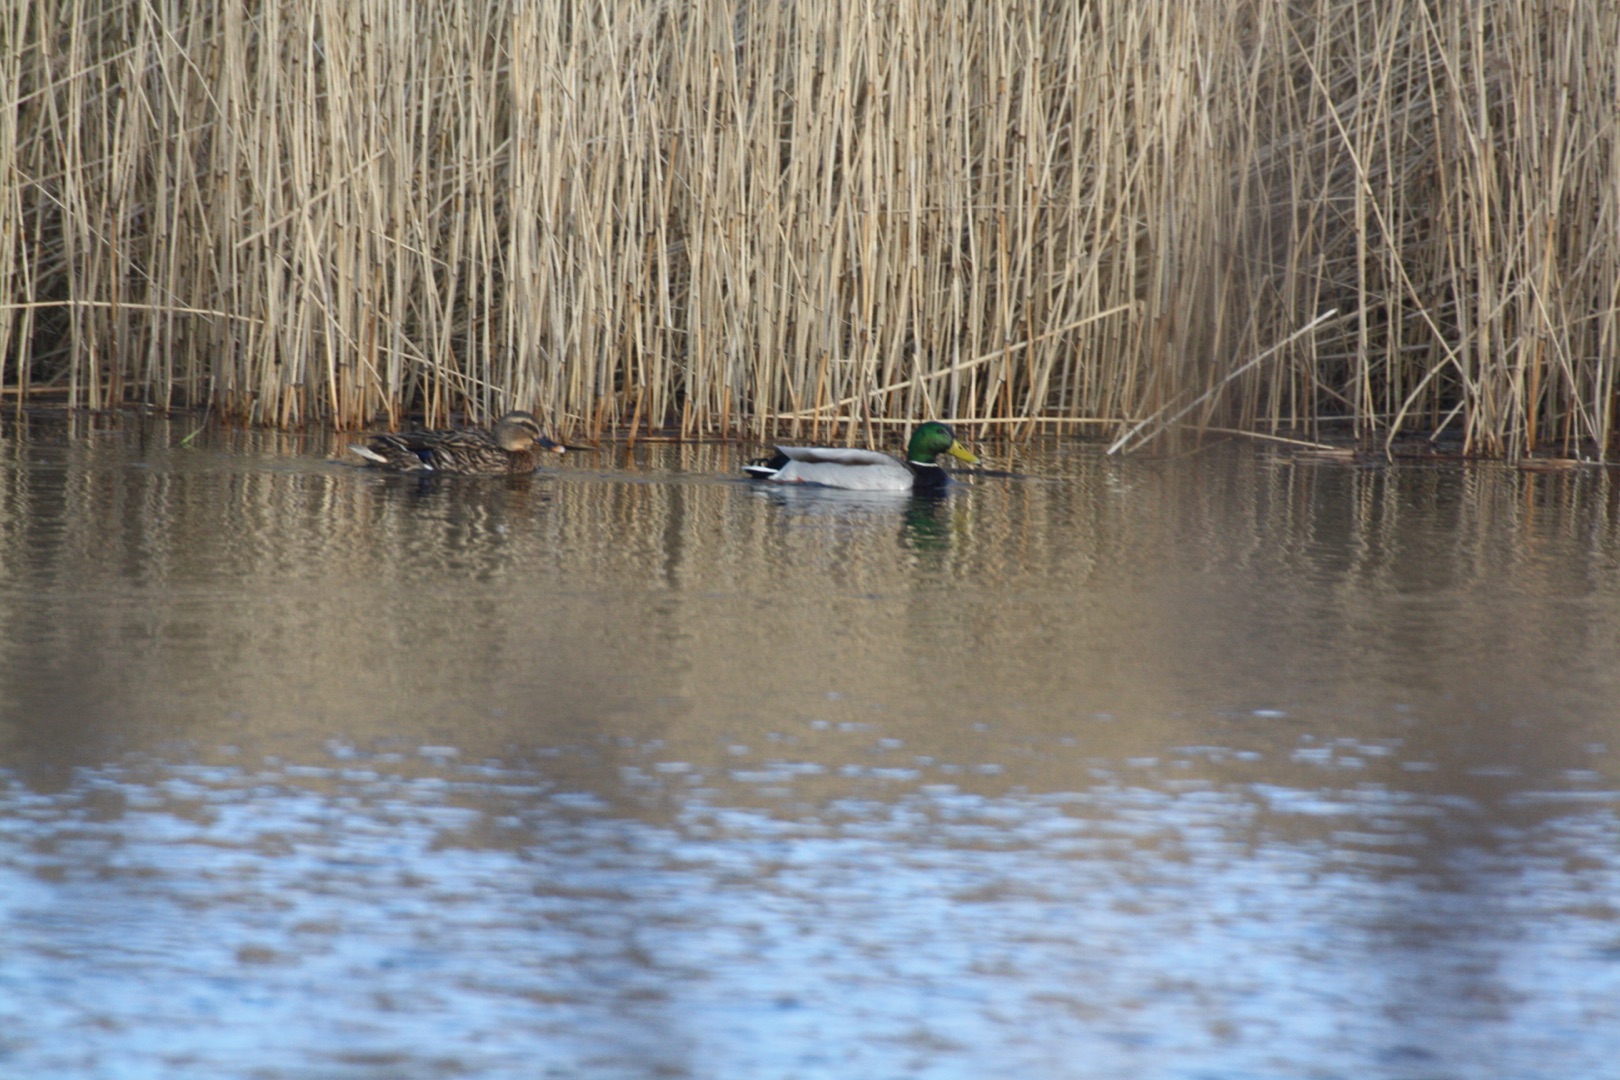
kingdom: Animalia
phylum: Chordata
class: Aves
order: Anseriformes
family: Anatidae
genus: Anas
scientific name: Anas platyrhynchos
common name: Gråand
